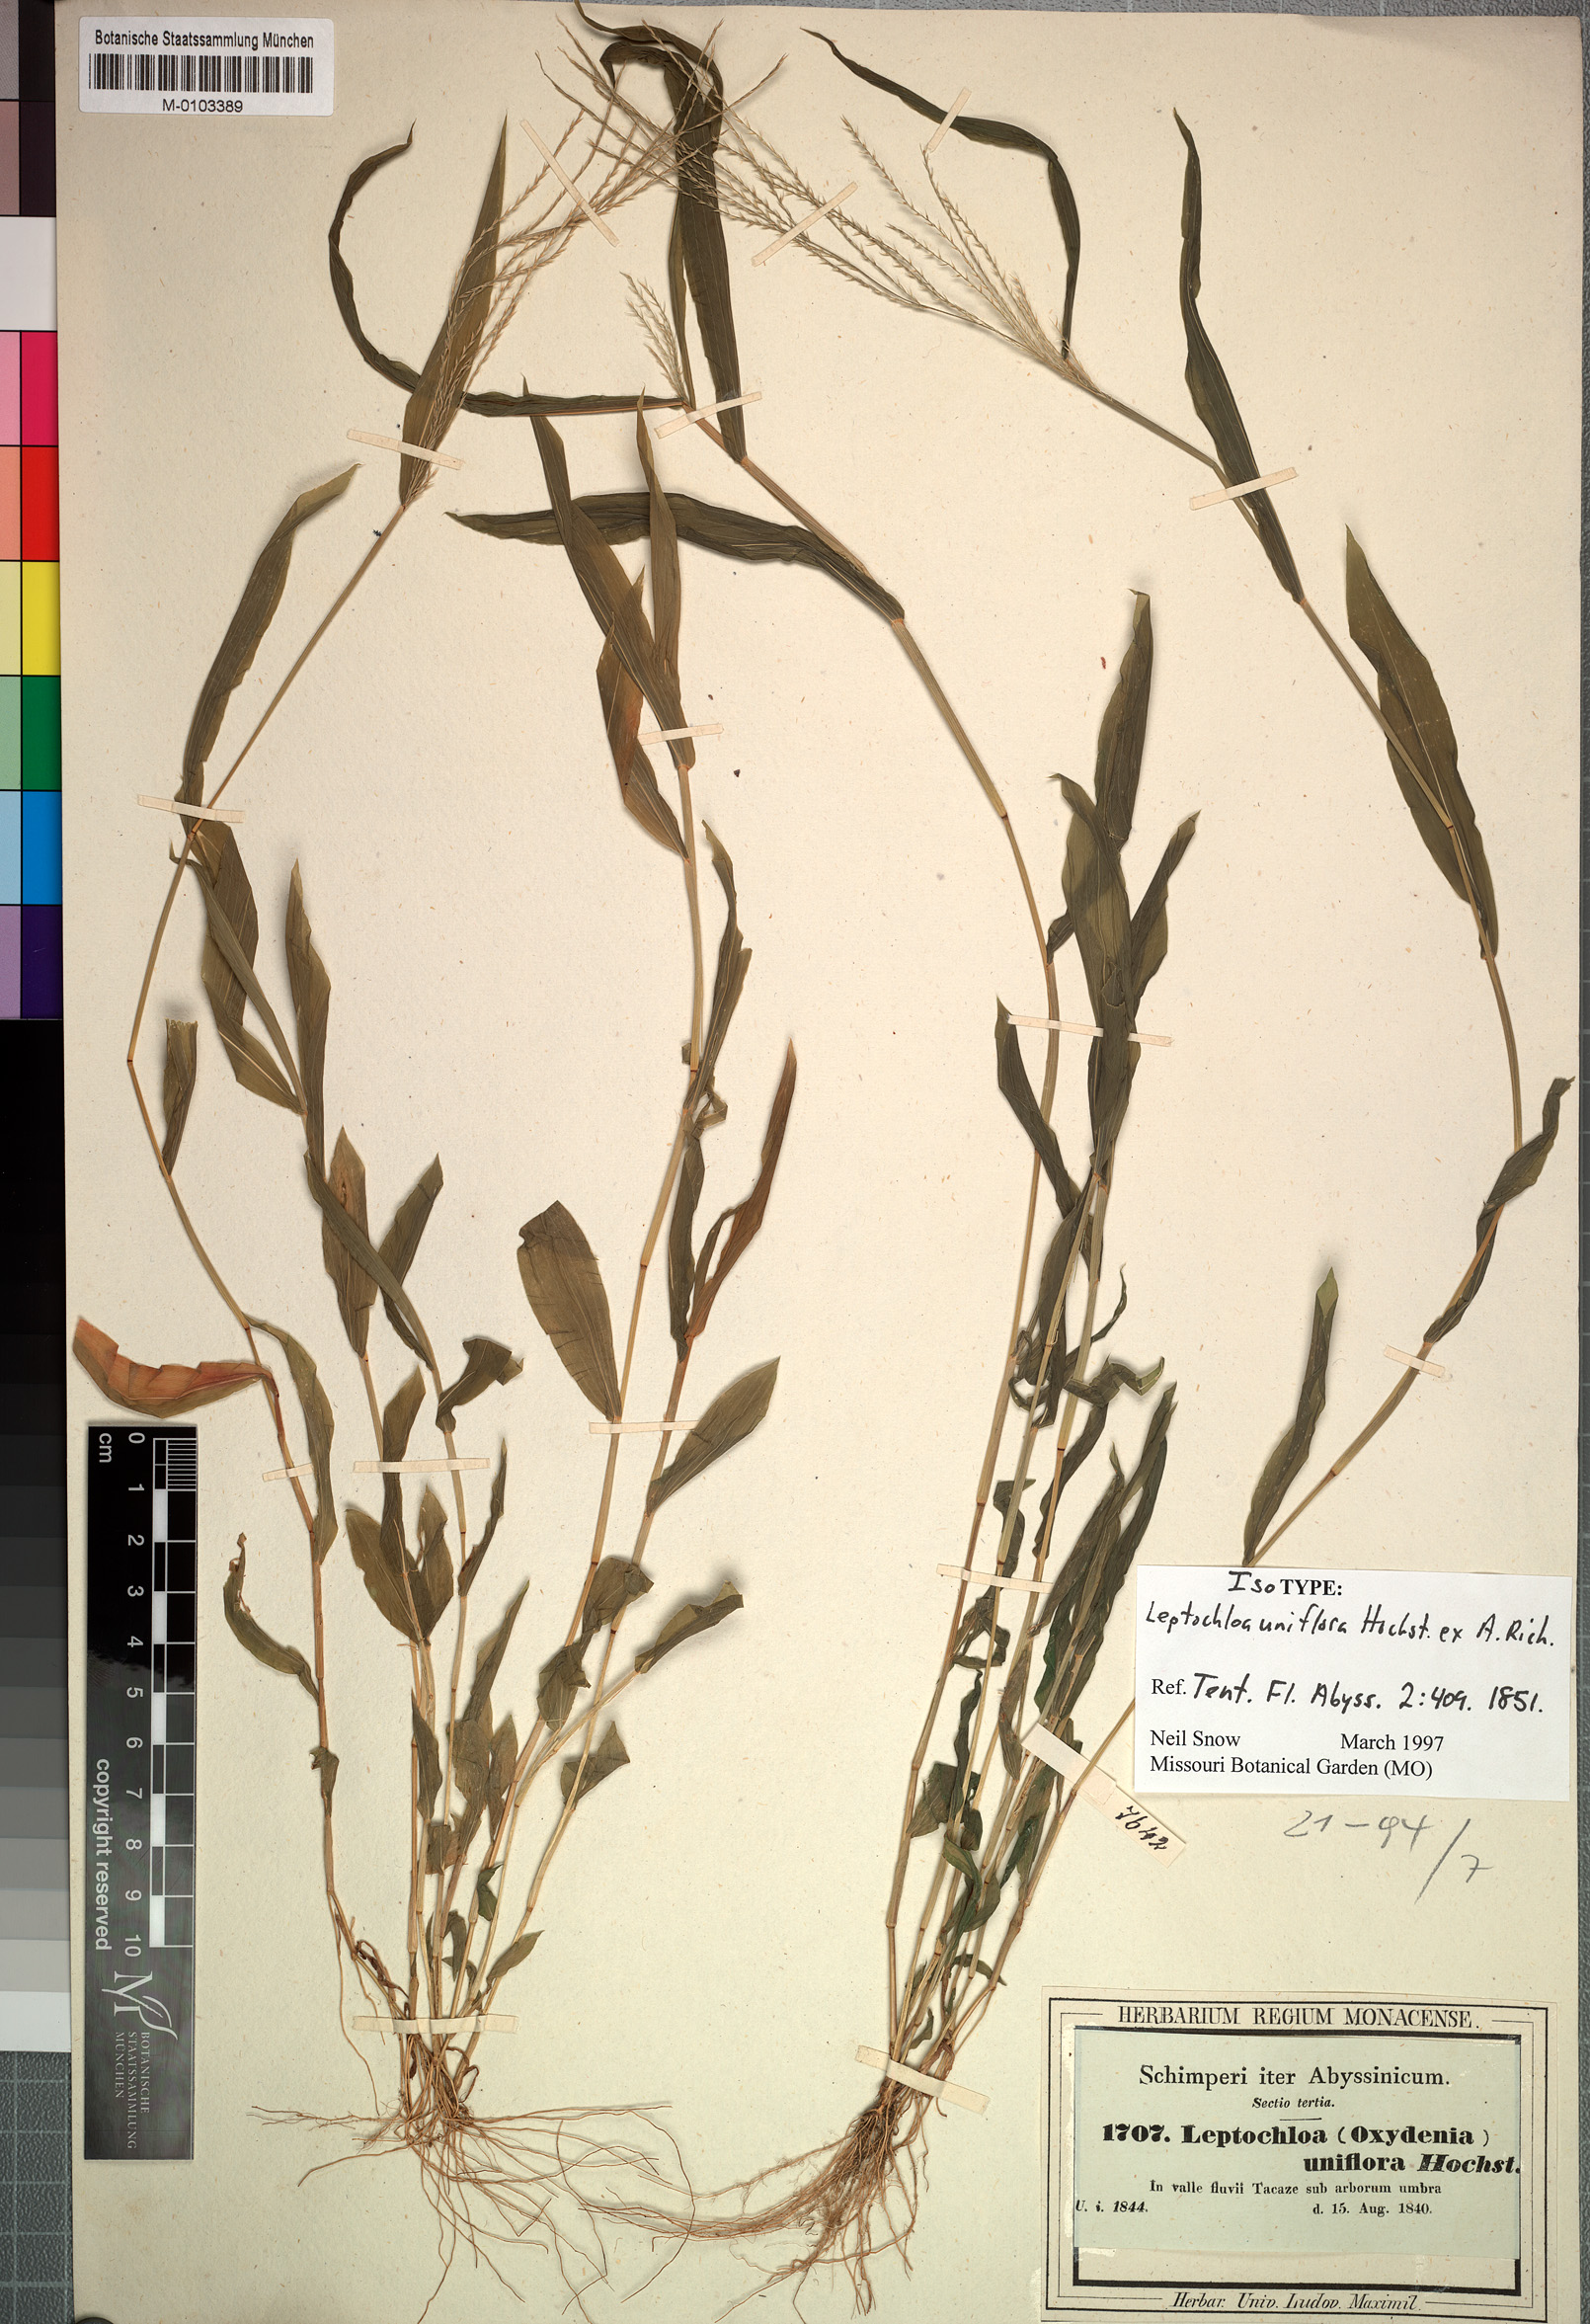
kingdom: Plantae
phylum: Tracheophyta
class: Liliopsida
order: Poales
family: Poaceae
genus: Trigonochloa
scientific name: Trigonochloa uniflora
